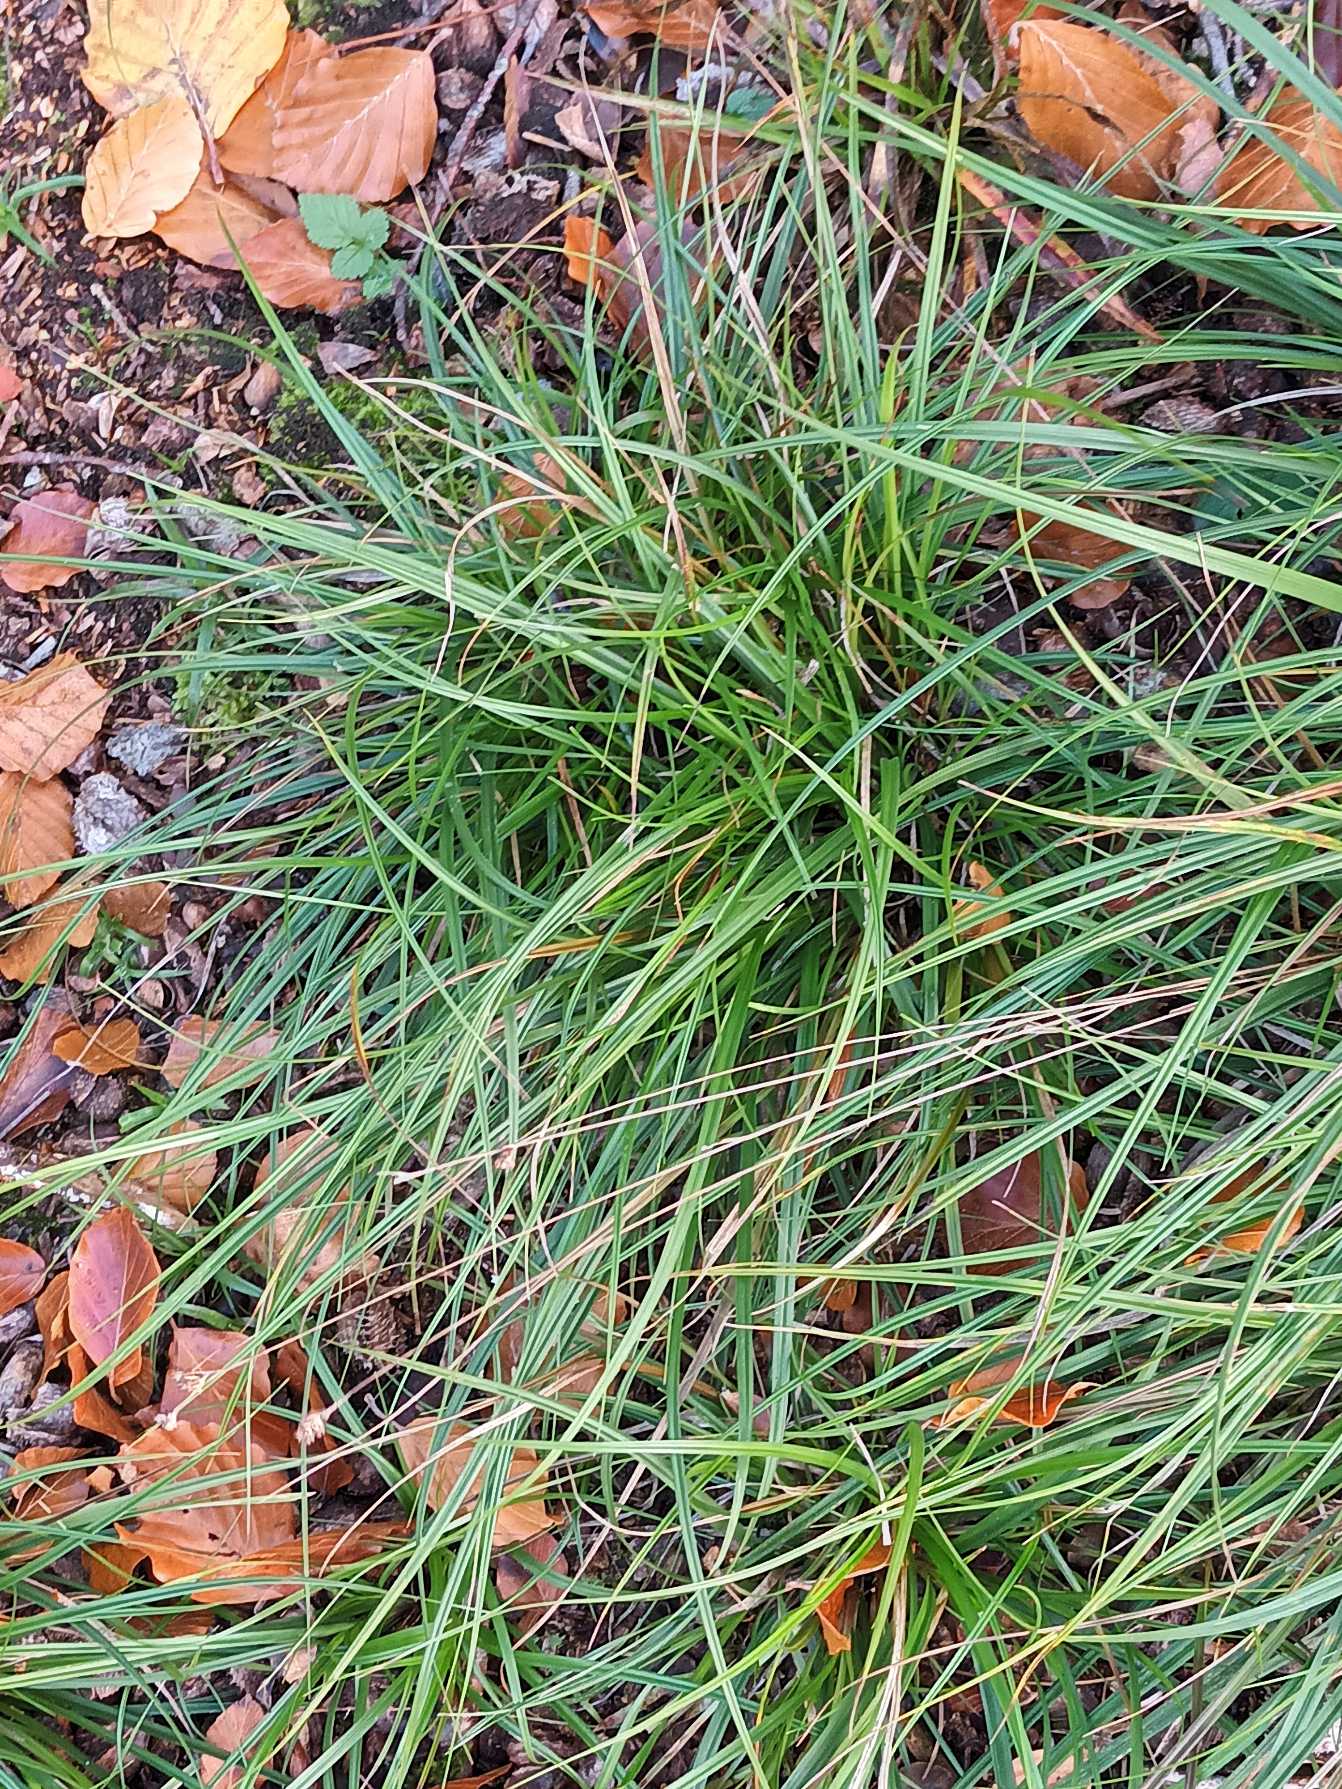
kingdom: Plantae
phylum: Tracheophyta
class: Liliopsida
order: Poales
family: Cyperaceae
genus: Carex
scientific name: Carex pilulifera
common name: Pille-star
